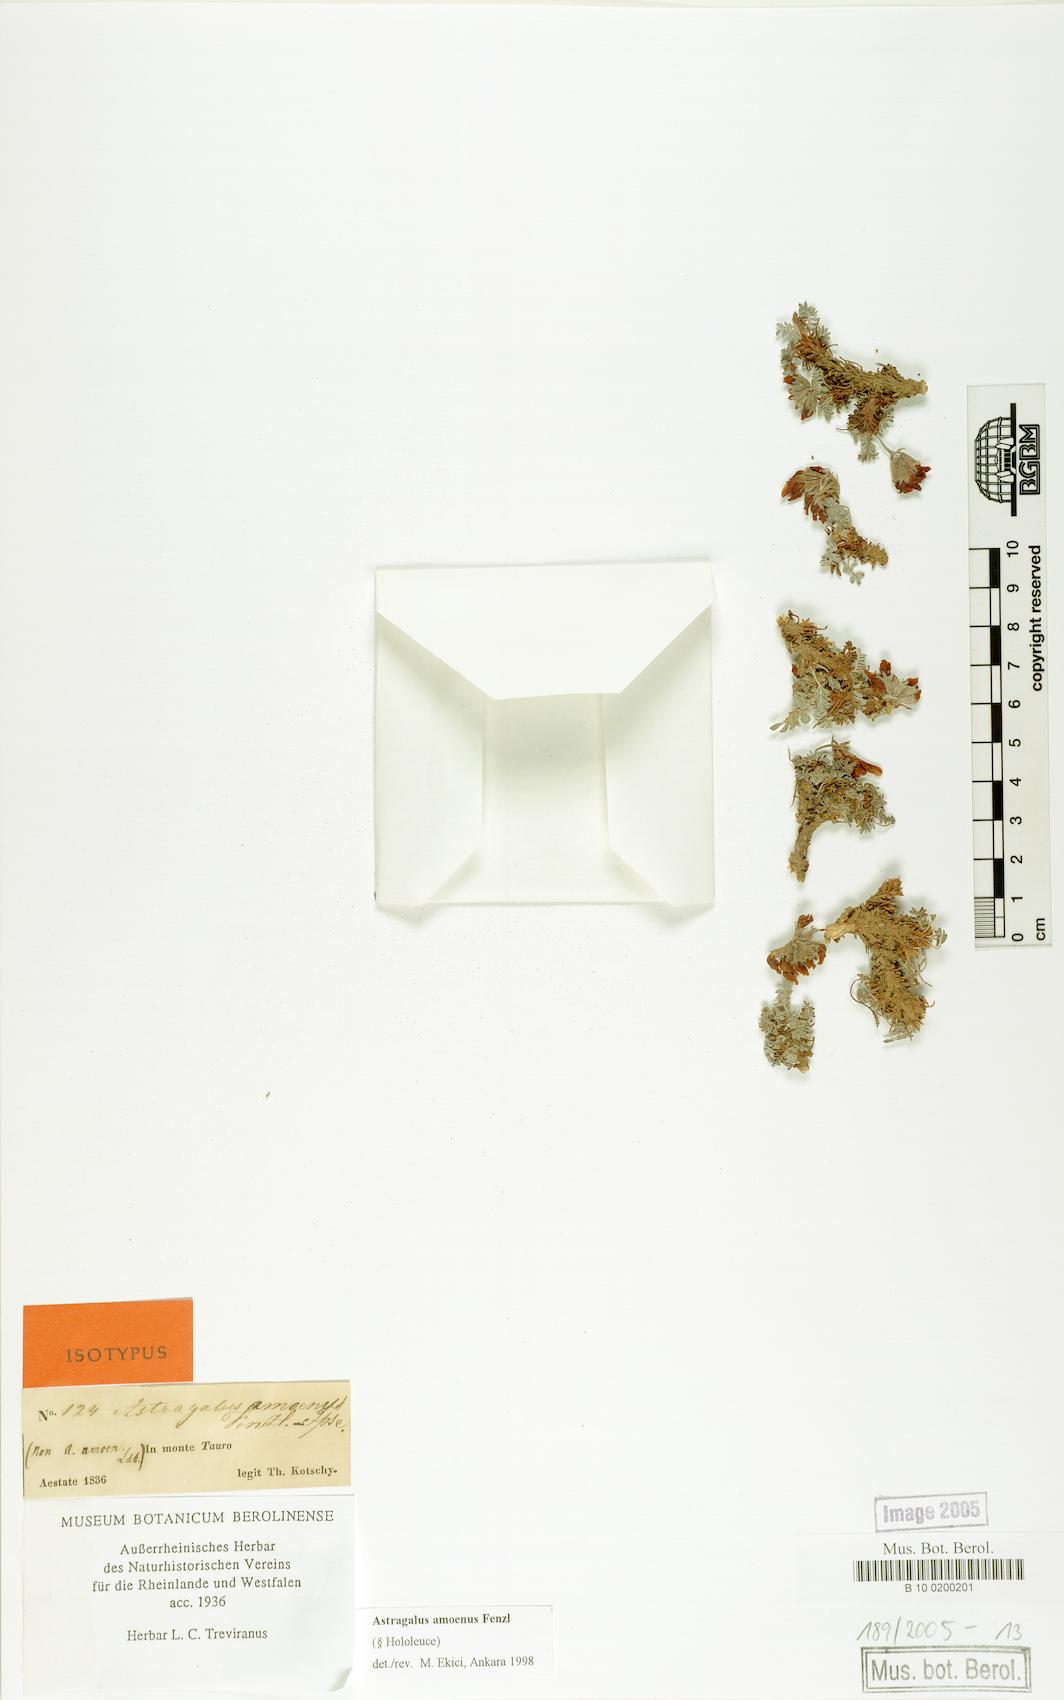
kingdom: Plantae
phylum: Tracheophyta
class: Magnoliopsida
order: Fabales
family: Fabaceae
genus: Astragalus
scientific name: Astragalus germainii
